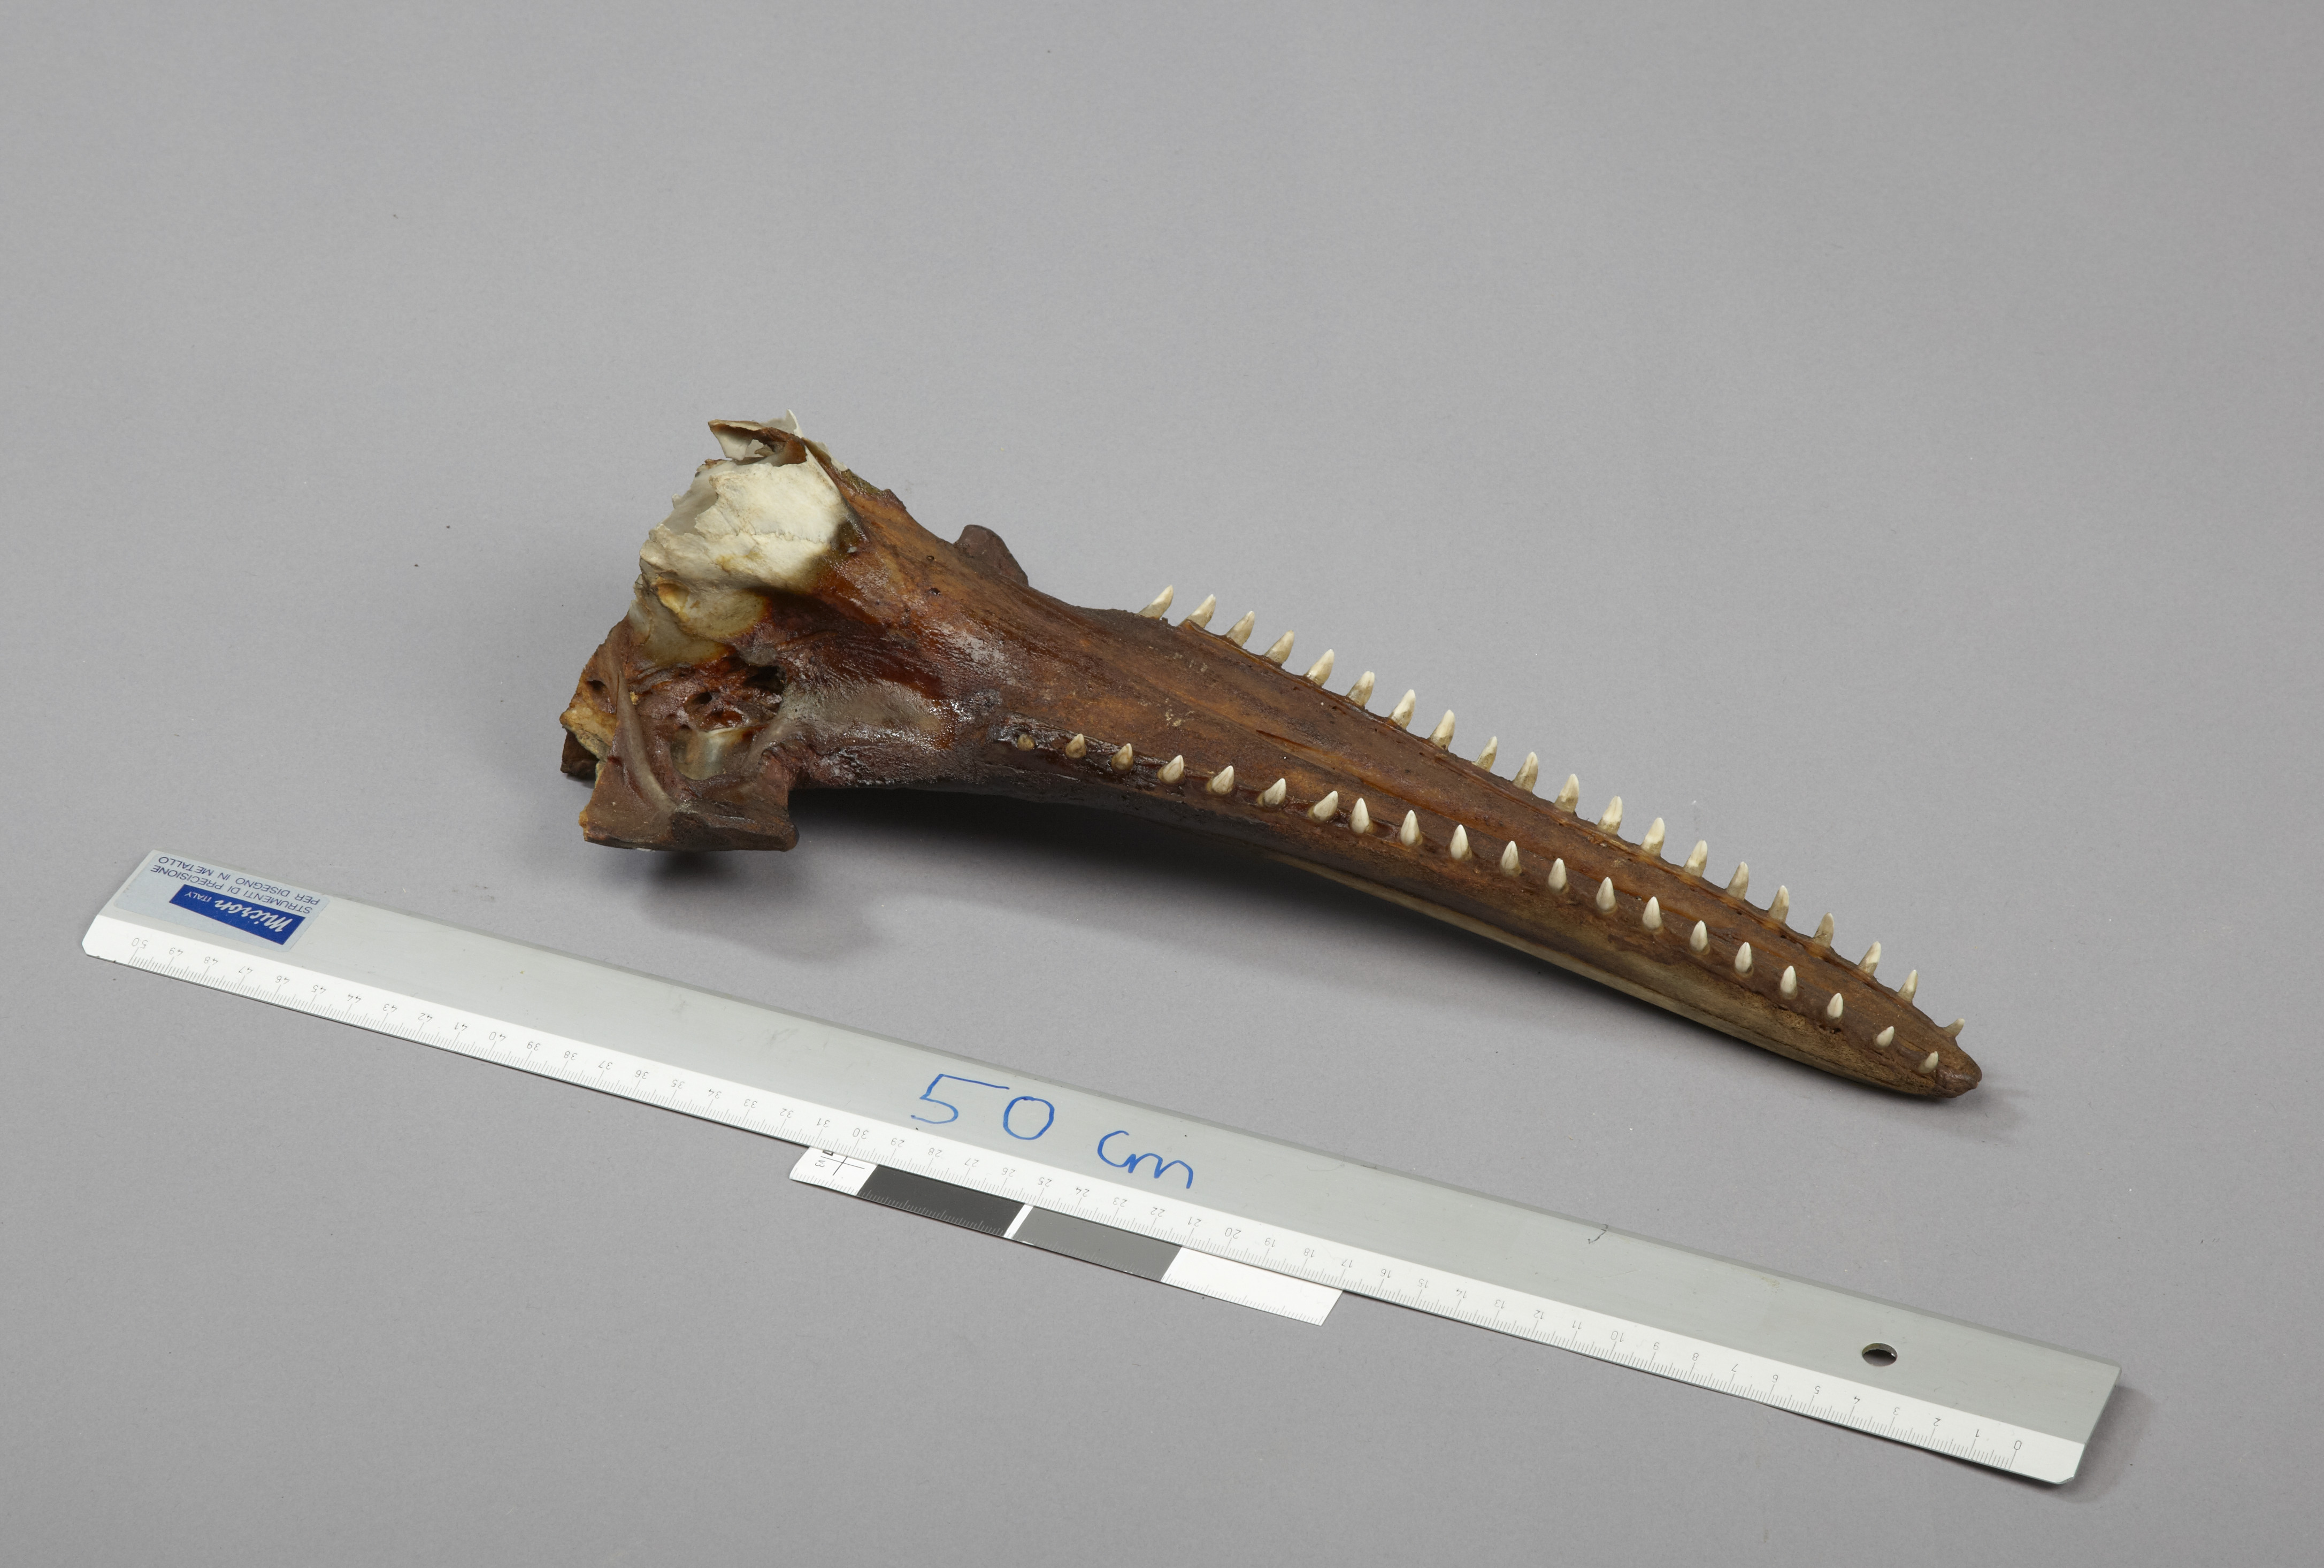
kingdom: Animalia
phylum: Chordata
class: Mammalia
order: Cetacea
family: Delphinidae
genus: Delphinus
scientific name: Delphinus delphis
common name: Common dolphin
